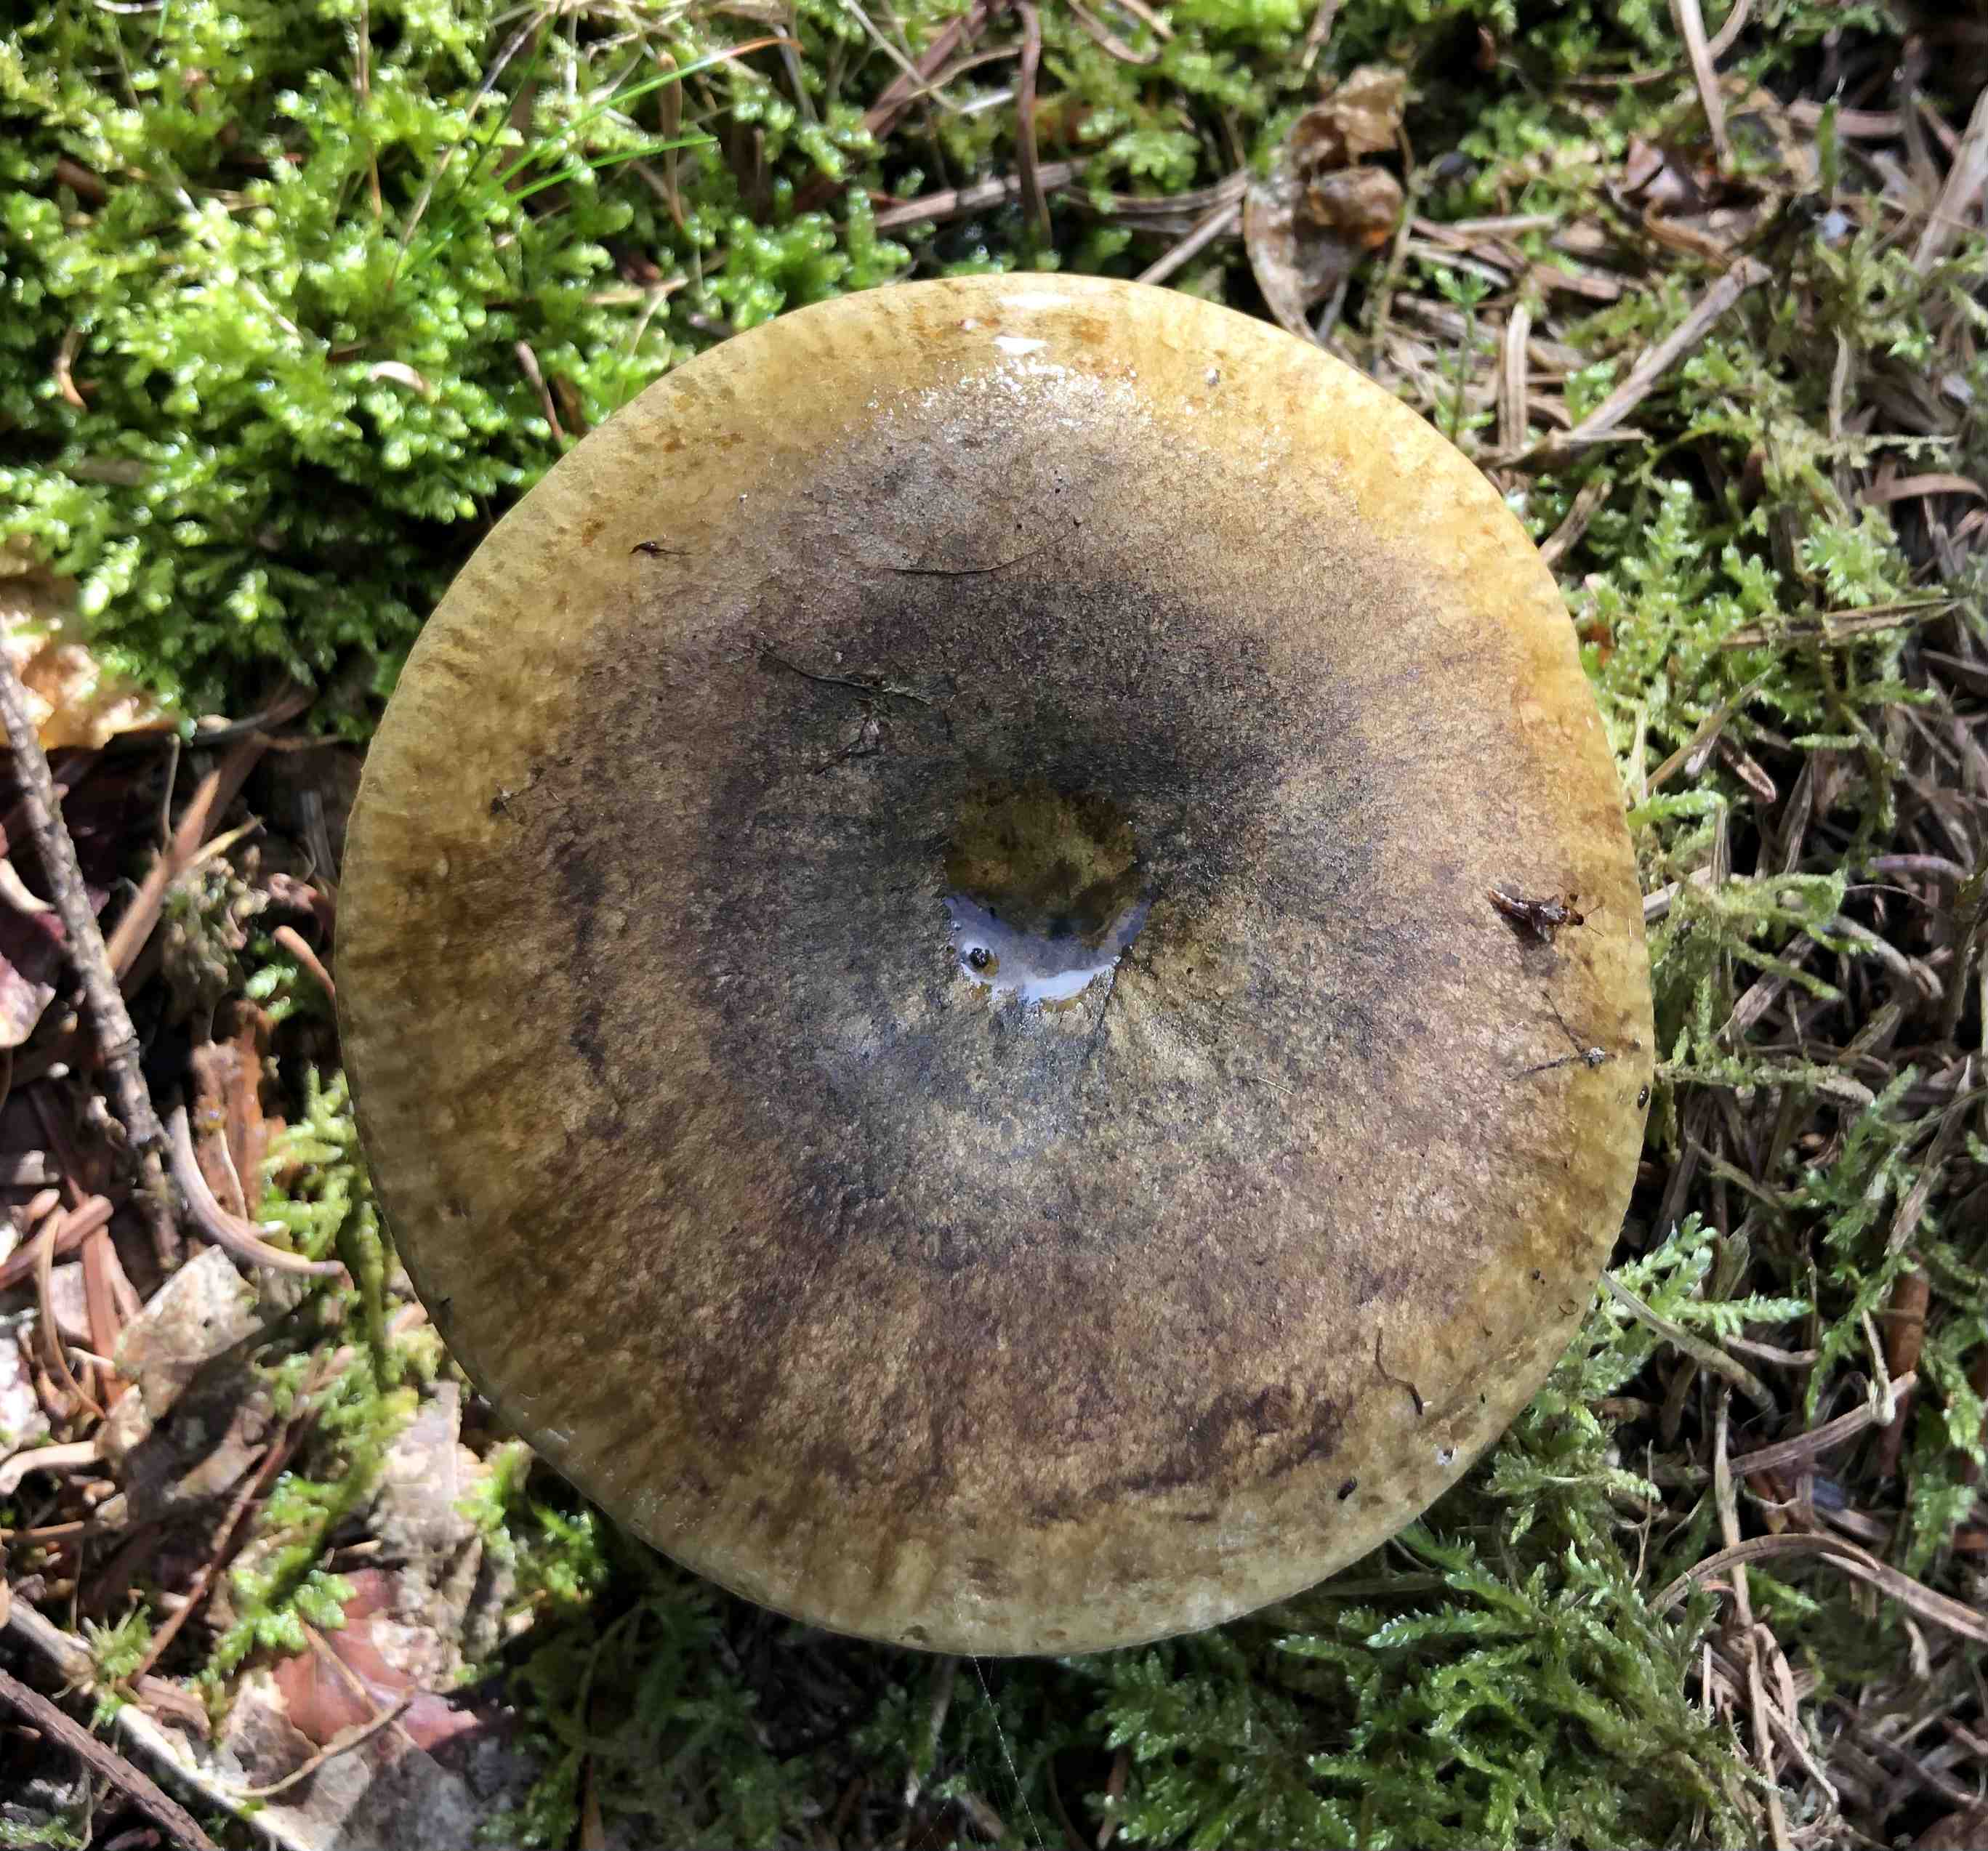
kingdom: Fungi
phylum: Basidiomycota
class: Agaricomycetes
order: Russulales
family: Russulaceae
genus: Lactarius
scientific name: Lactarius necator
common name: manddraber-mælkehat
